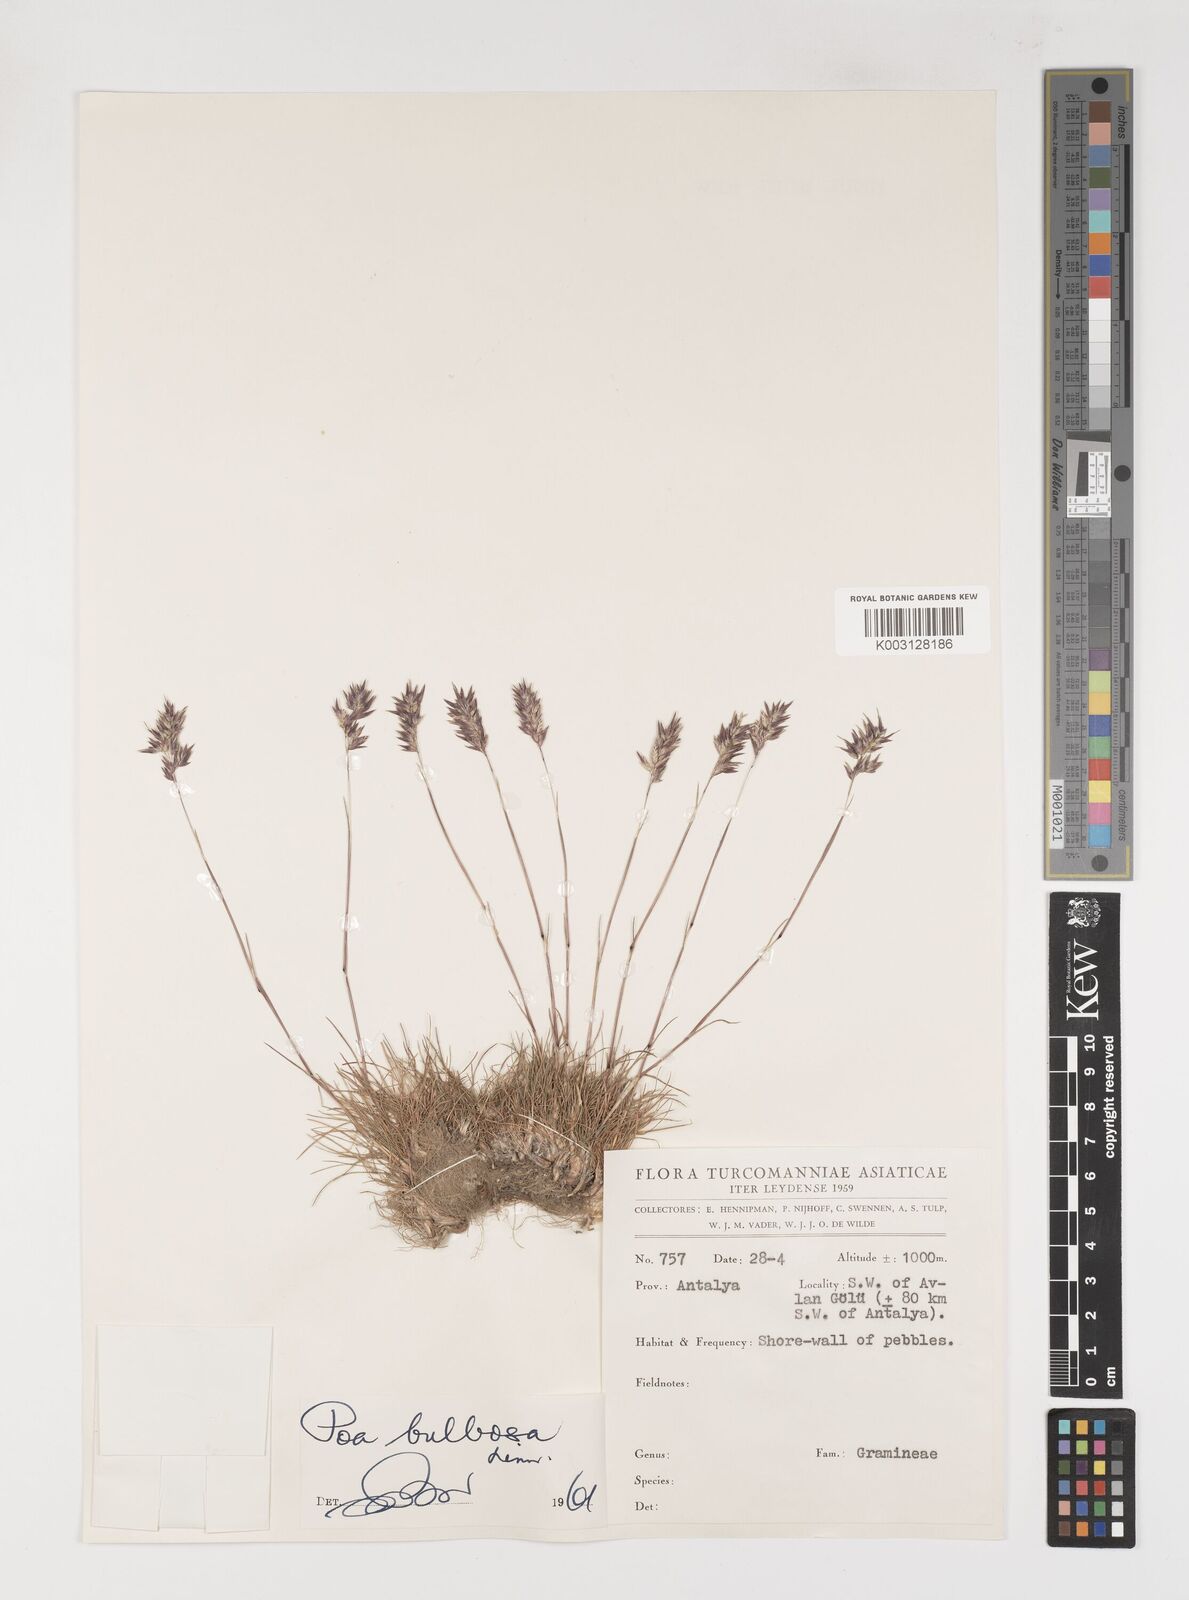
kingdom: Plantae
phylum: Tracheophyta
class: Liliopsida
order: Poales
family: Poaceae
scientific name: Poaceae
